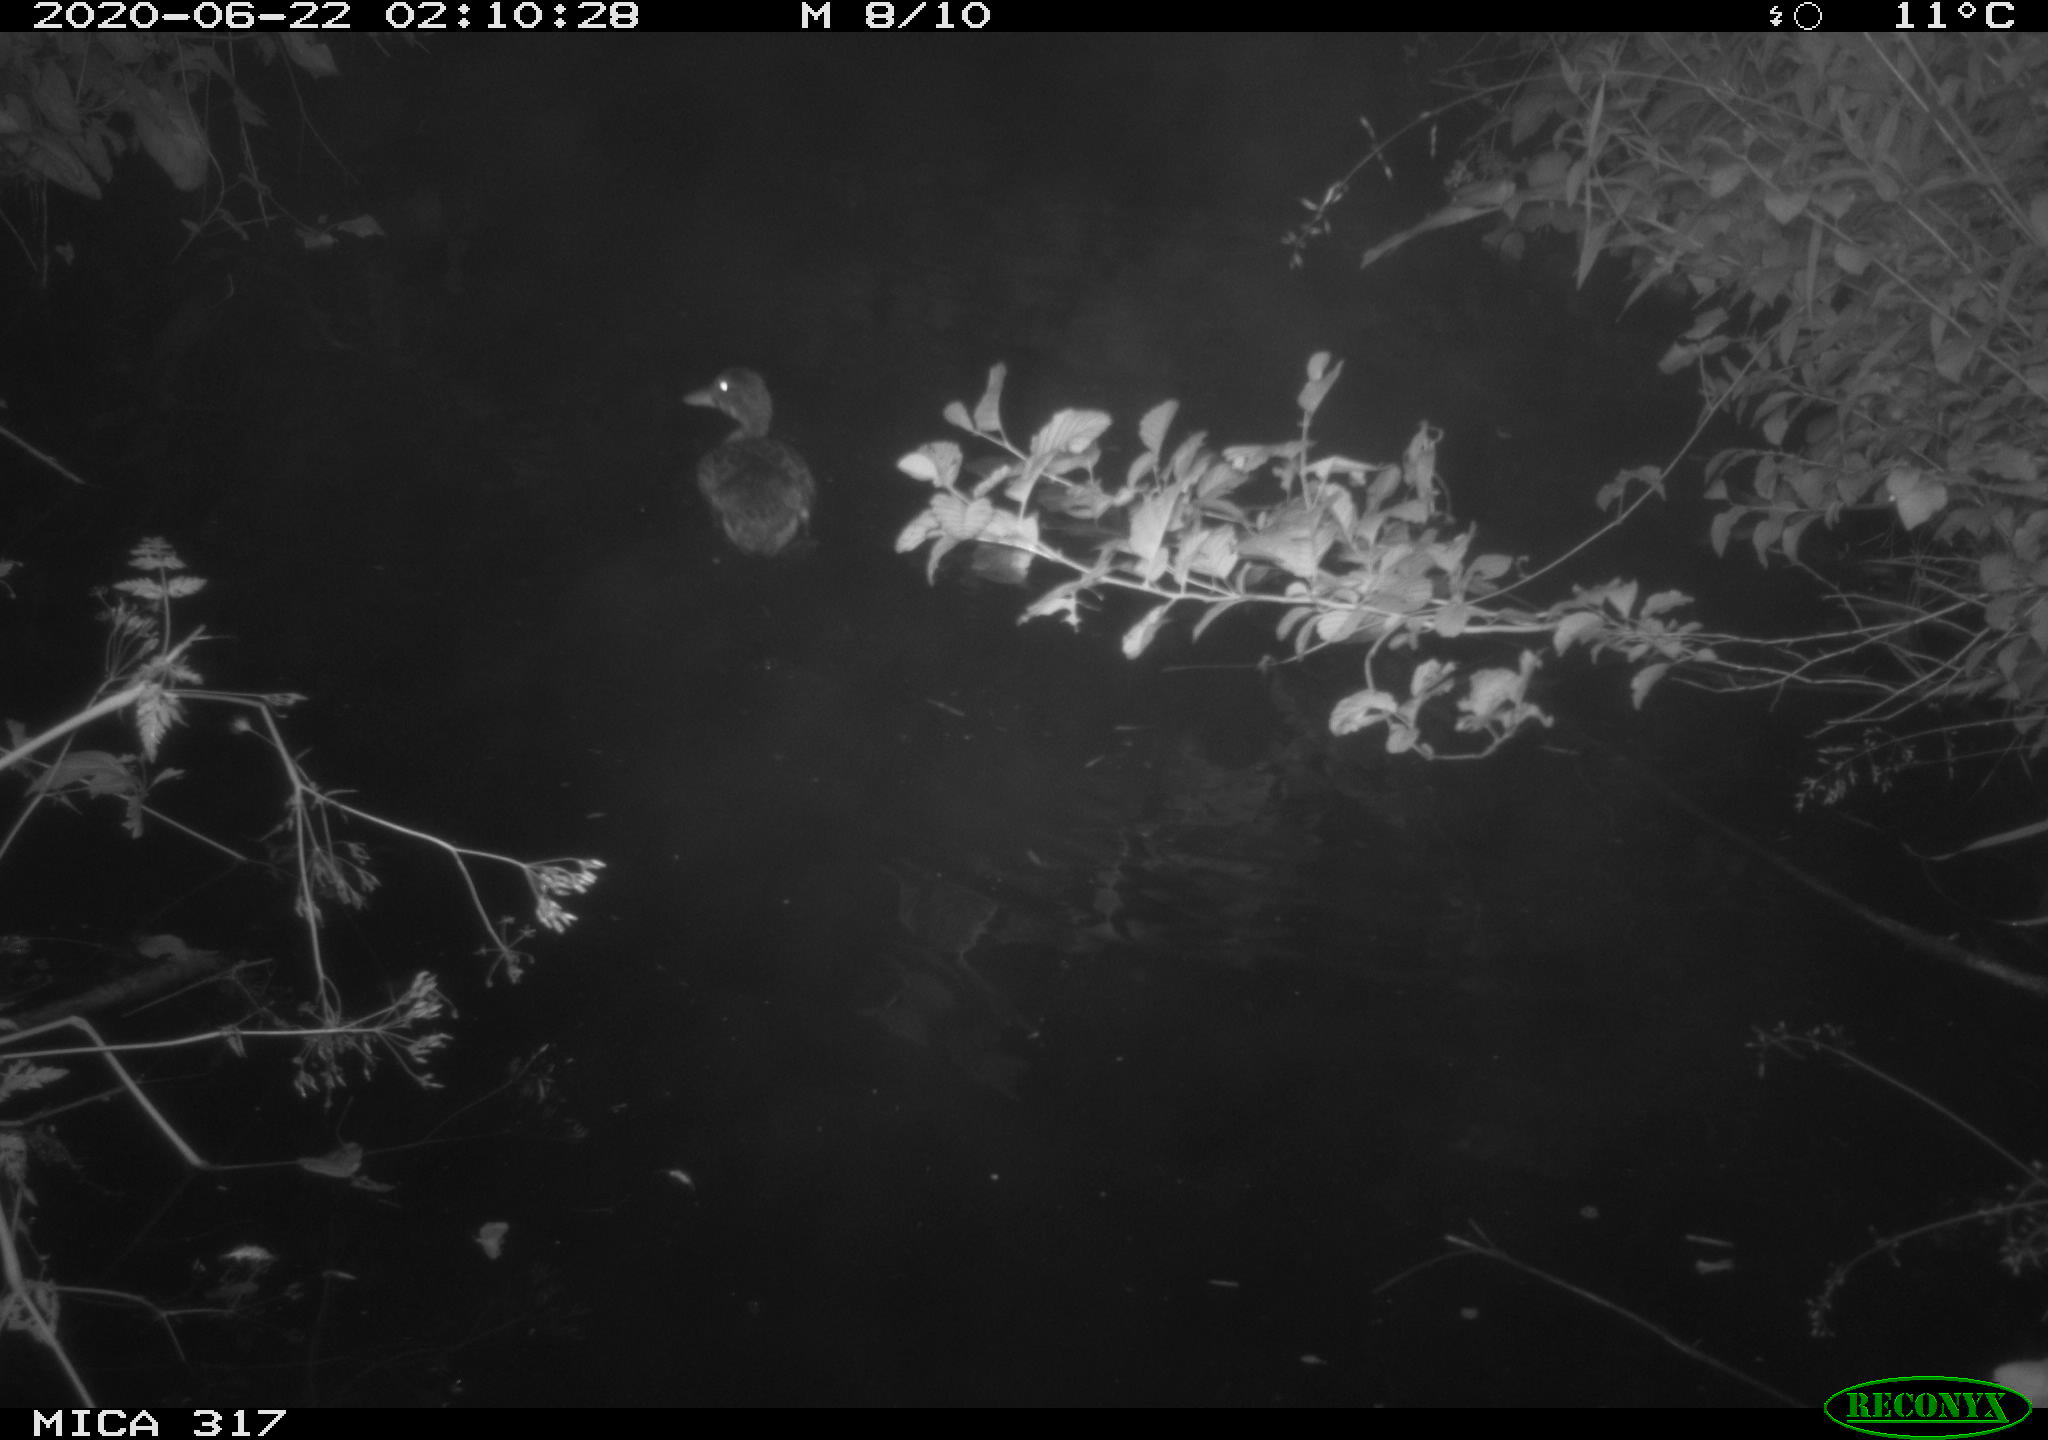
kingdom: Animalia
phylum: Chordata
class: Aves
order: Anseriformes
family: Anatidae
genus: Anas
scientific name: Anas platyrhynchos
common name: Mallard
